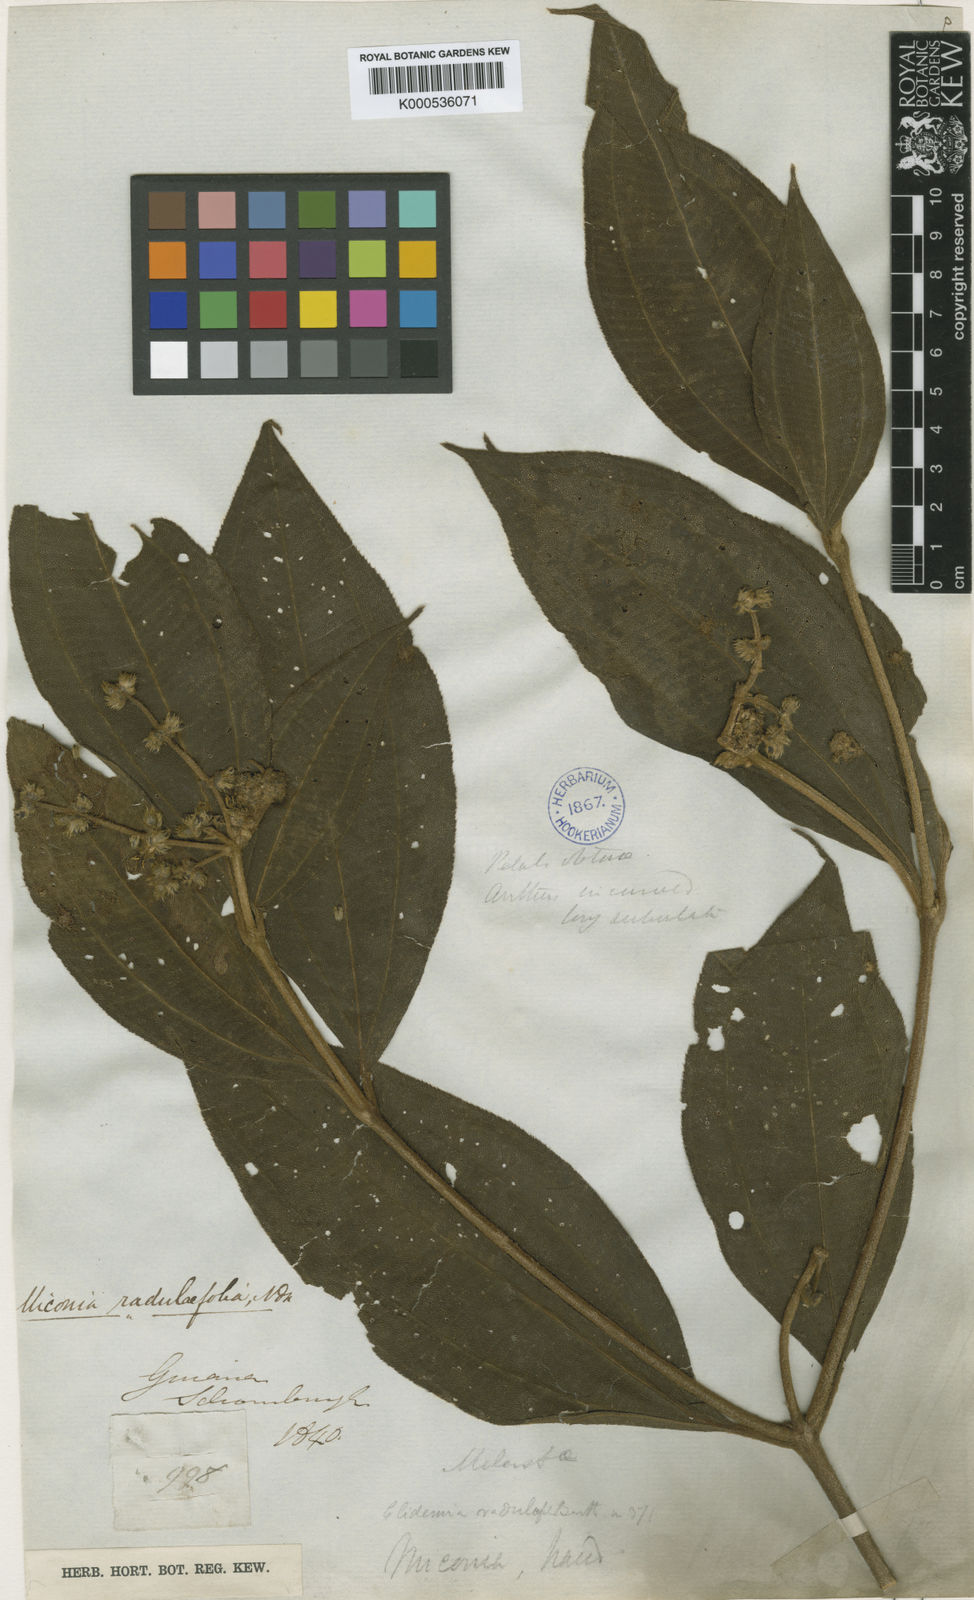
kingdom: Plantae
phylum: Tracheophyta
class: Magnoliopsida
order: Myrtales
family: Melastomataceae
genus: Miconia
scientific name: Miconia radulifolia
